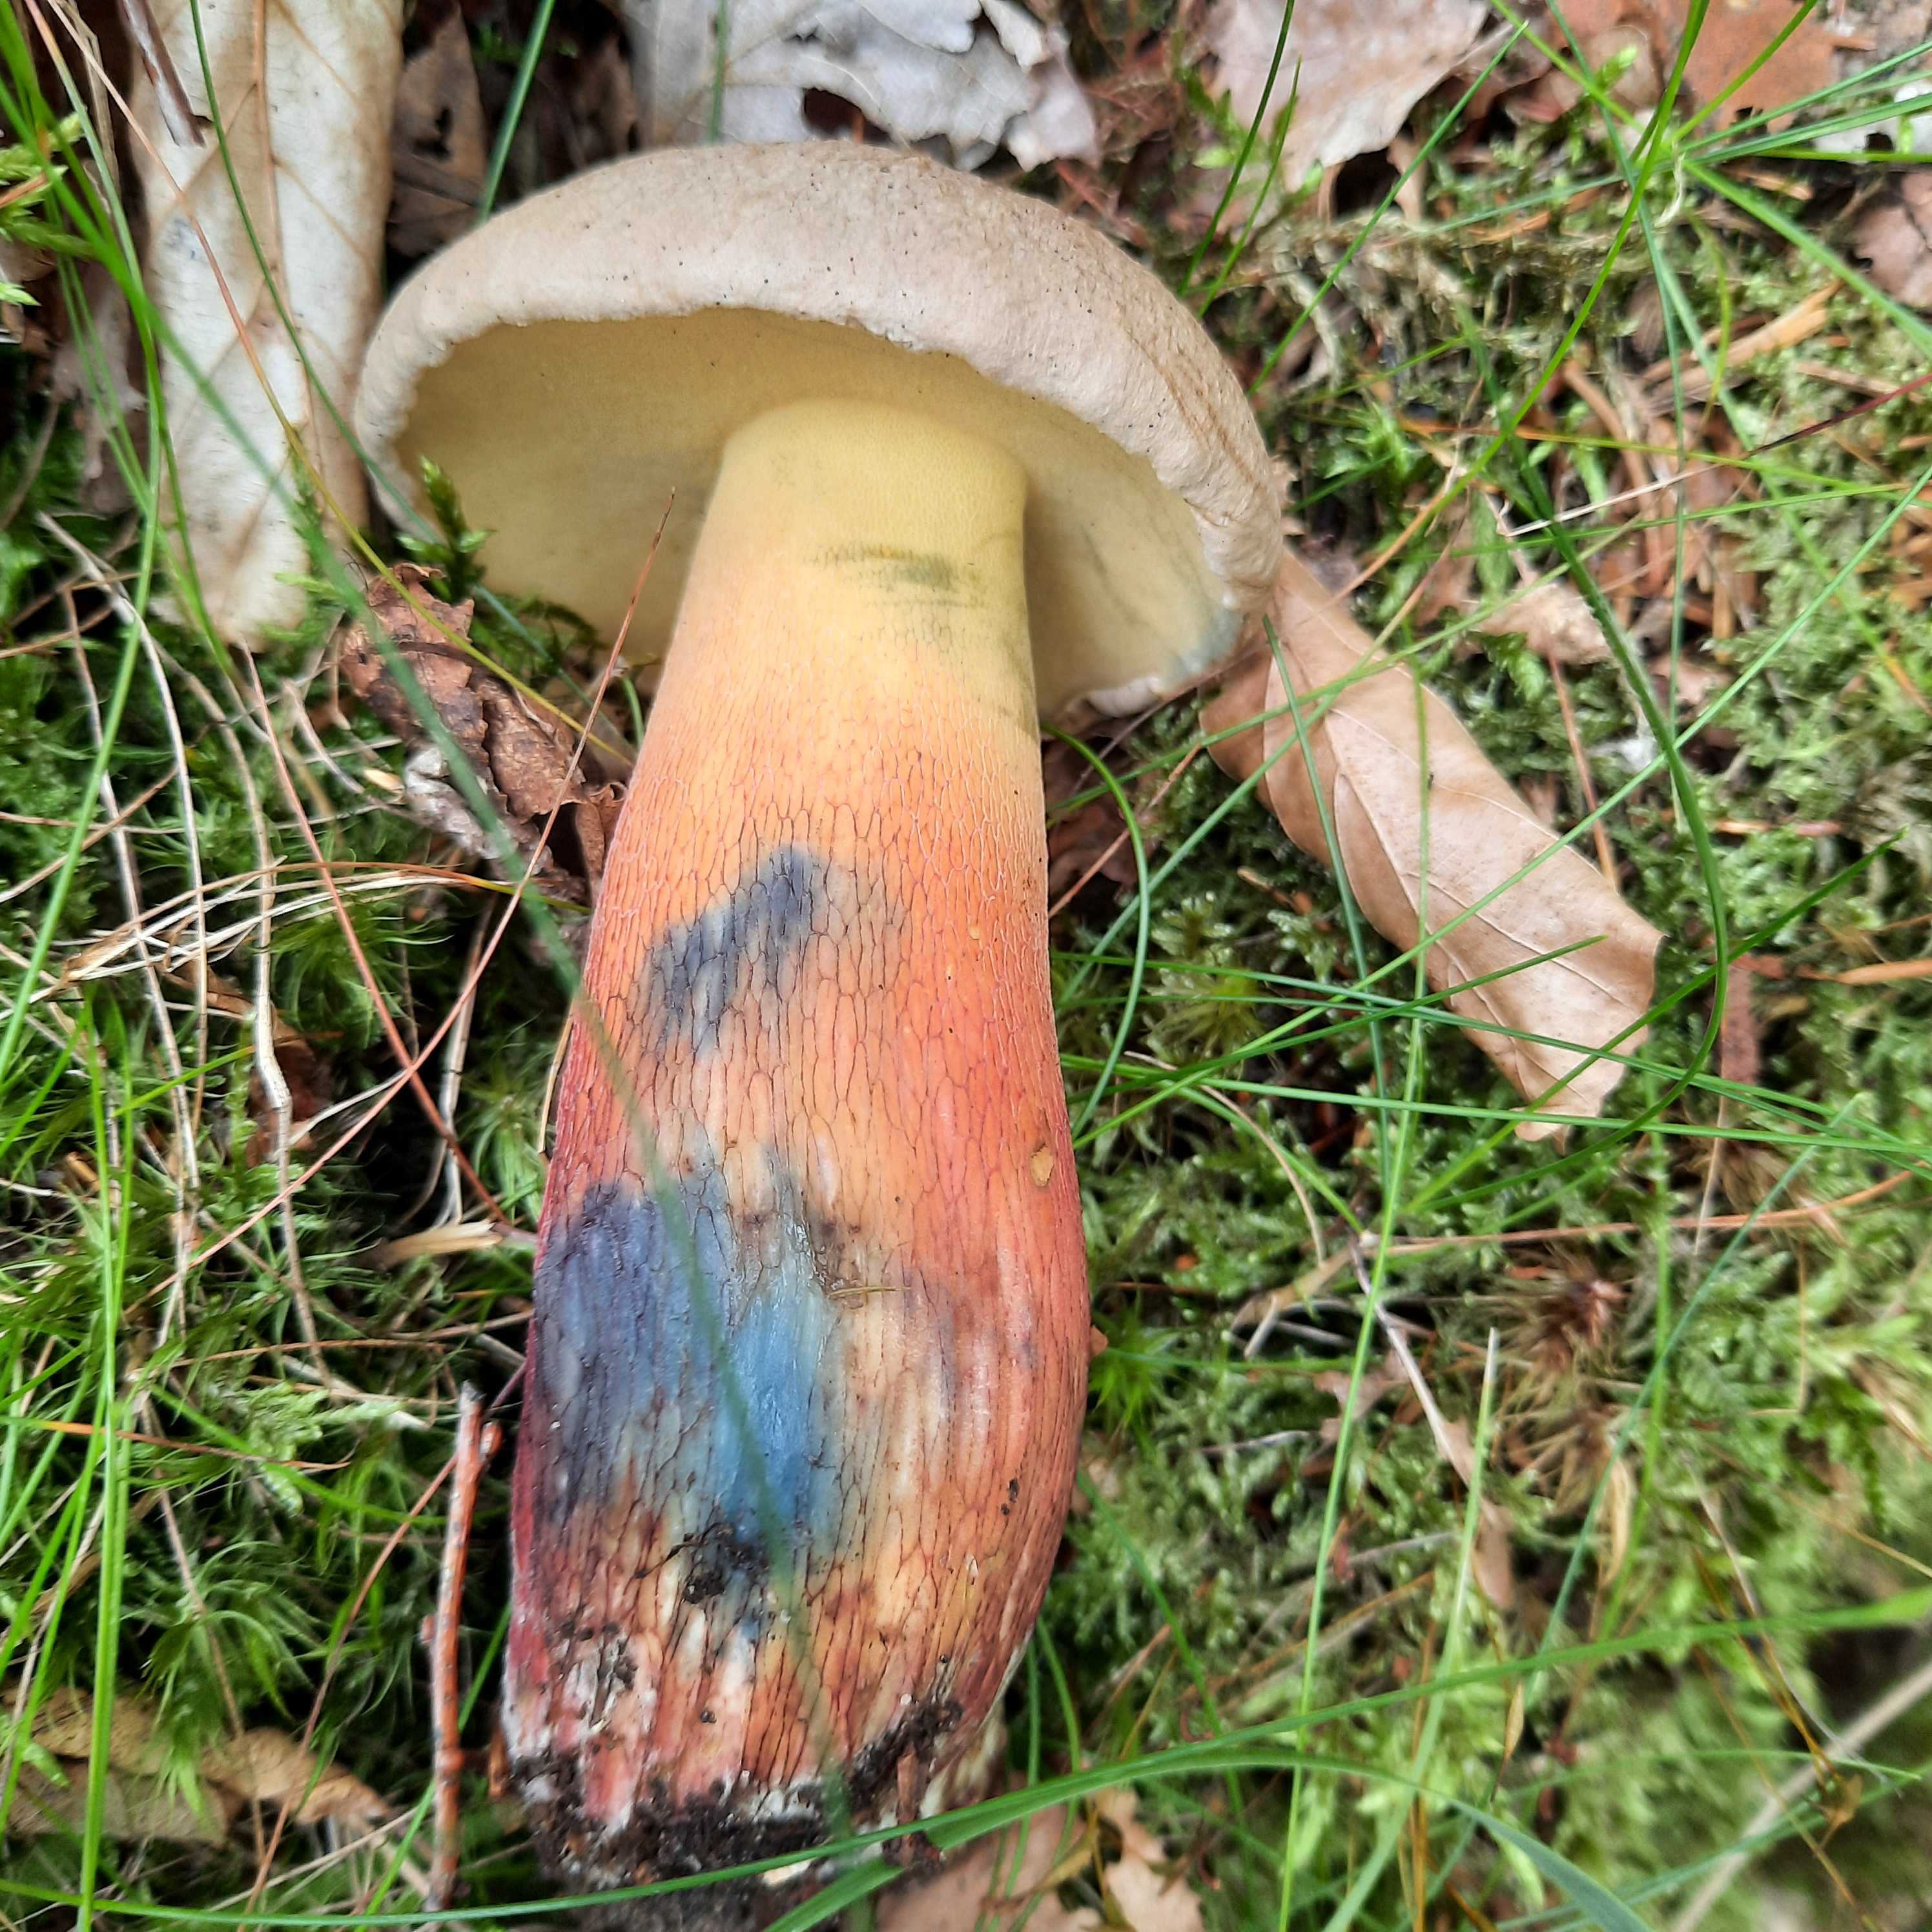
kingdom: Fungi
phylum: Basidiomycota
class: Agaricomycetes
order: Boletales
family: Boletaceae
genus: Caloboletus
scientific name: Caloboletus calopus
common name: skønfodet rørhat
